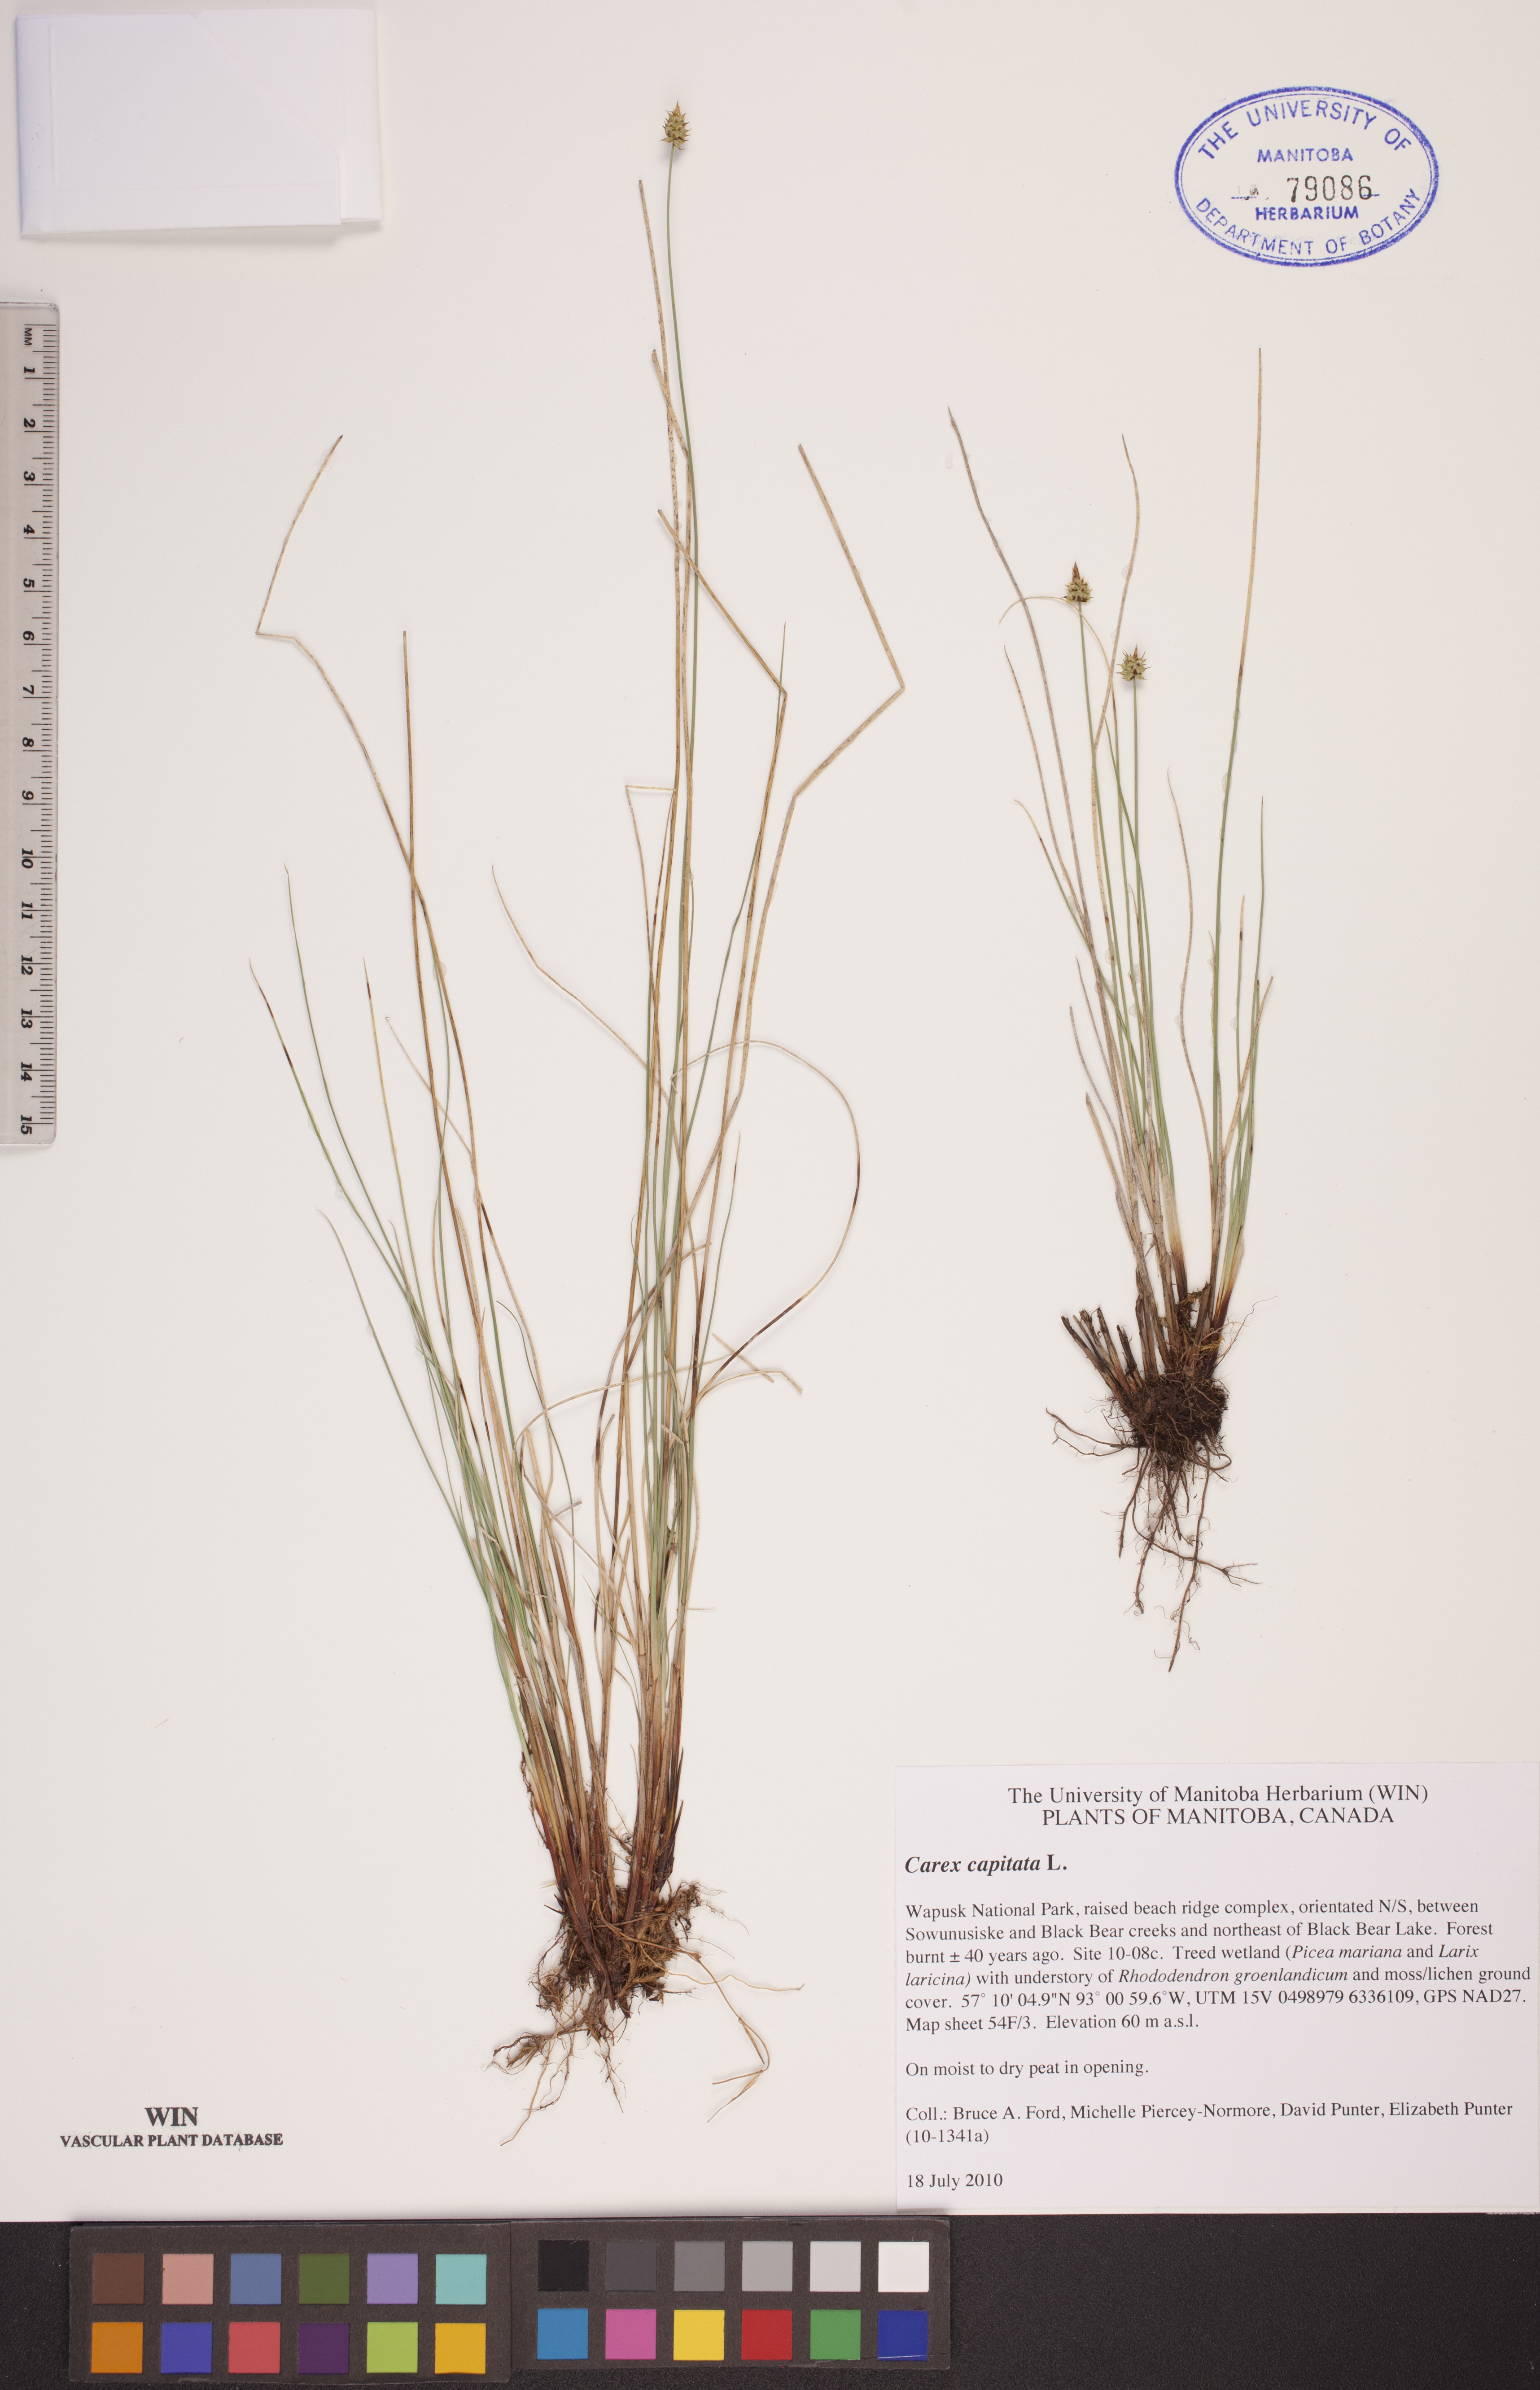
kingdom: Plantae
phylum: Tracheophyta
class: Liliopsida
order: Poales
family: Cyperaceae
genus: Carex
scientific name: Carex capitata
